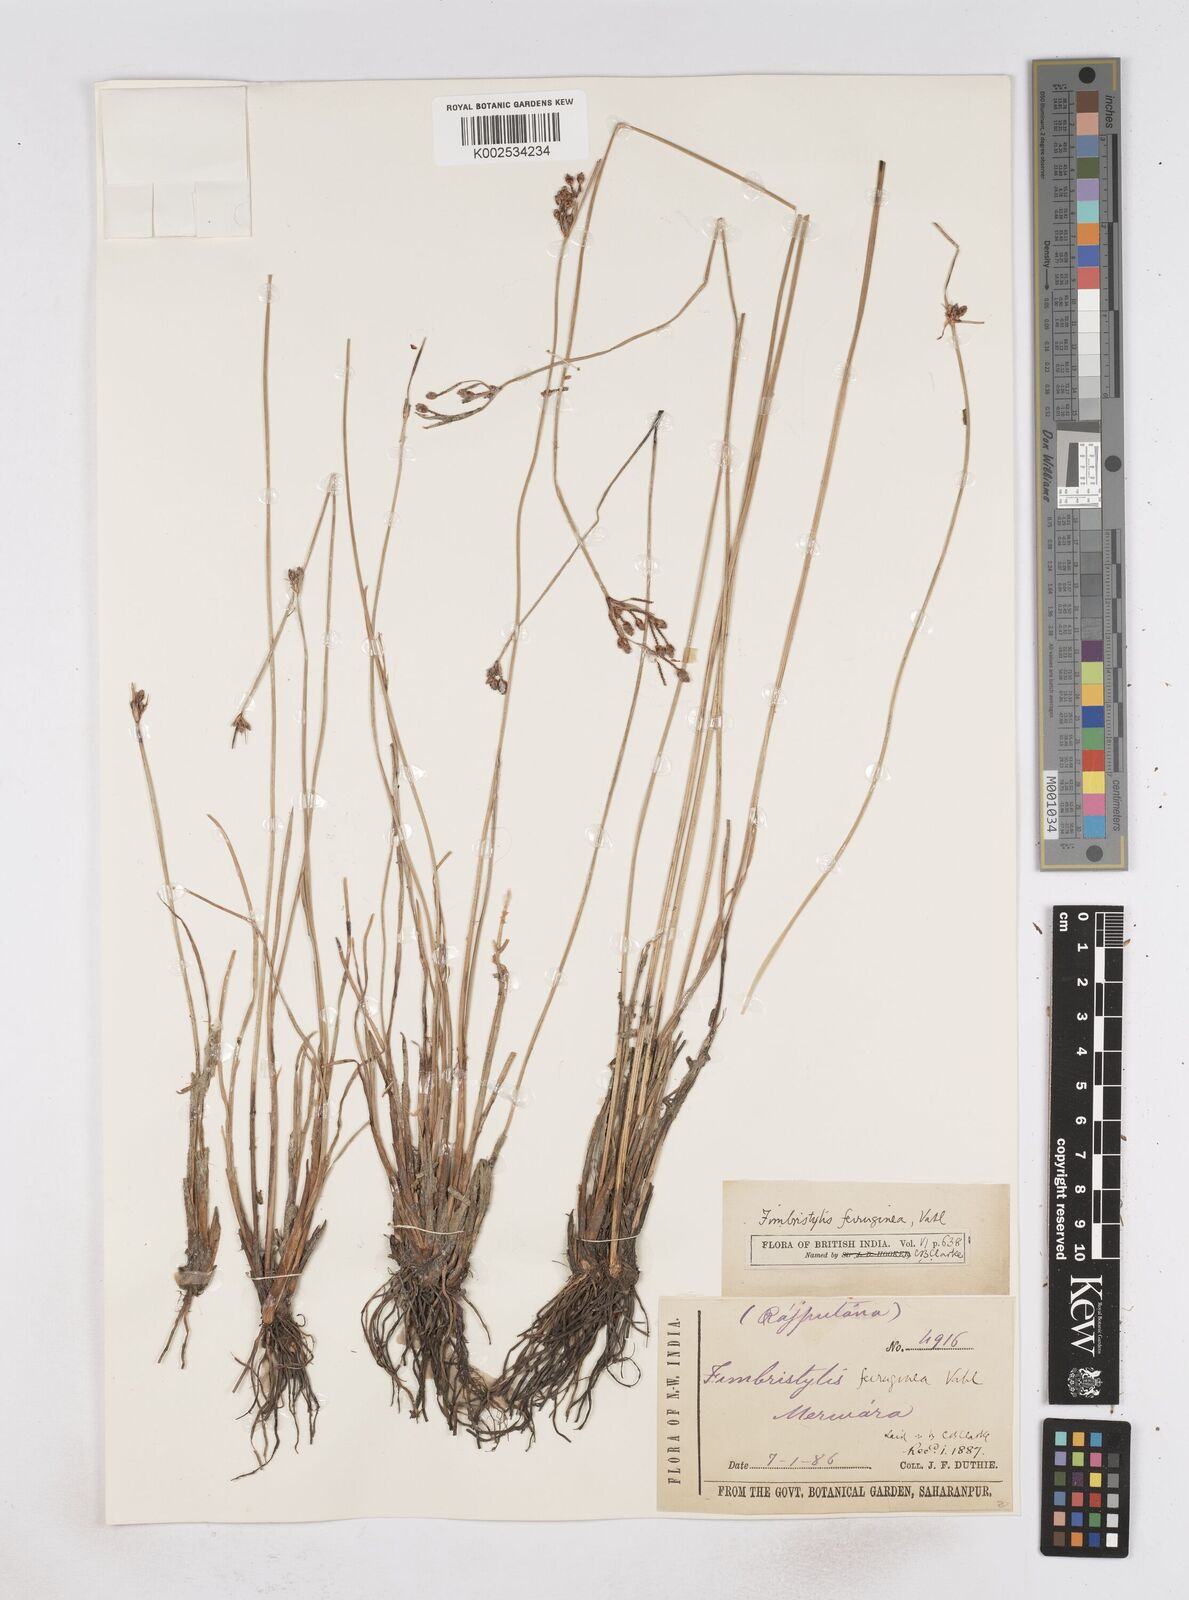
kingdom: Plantae
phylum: Tracheophyta
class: Liliopsida
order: Poales
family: Cyperaceae
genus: Fimbristylis
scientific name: Fimbristylis ferruginea
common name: West indian fimbry
